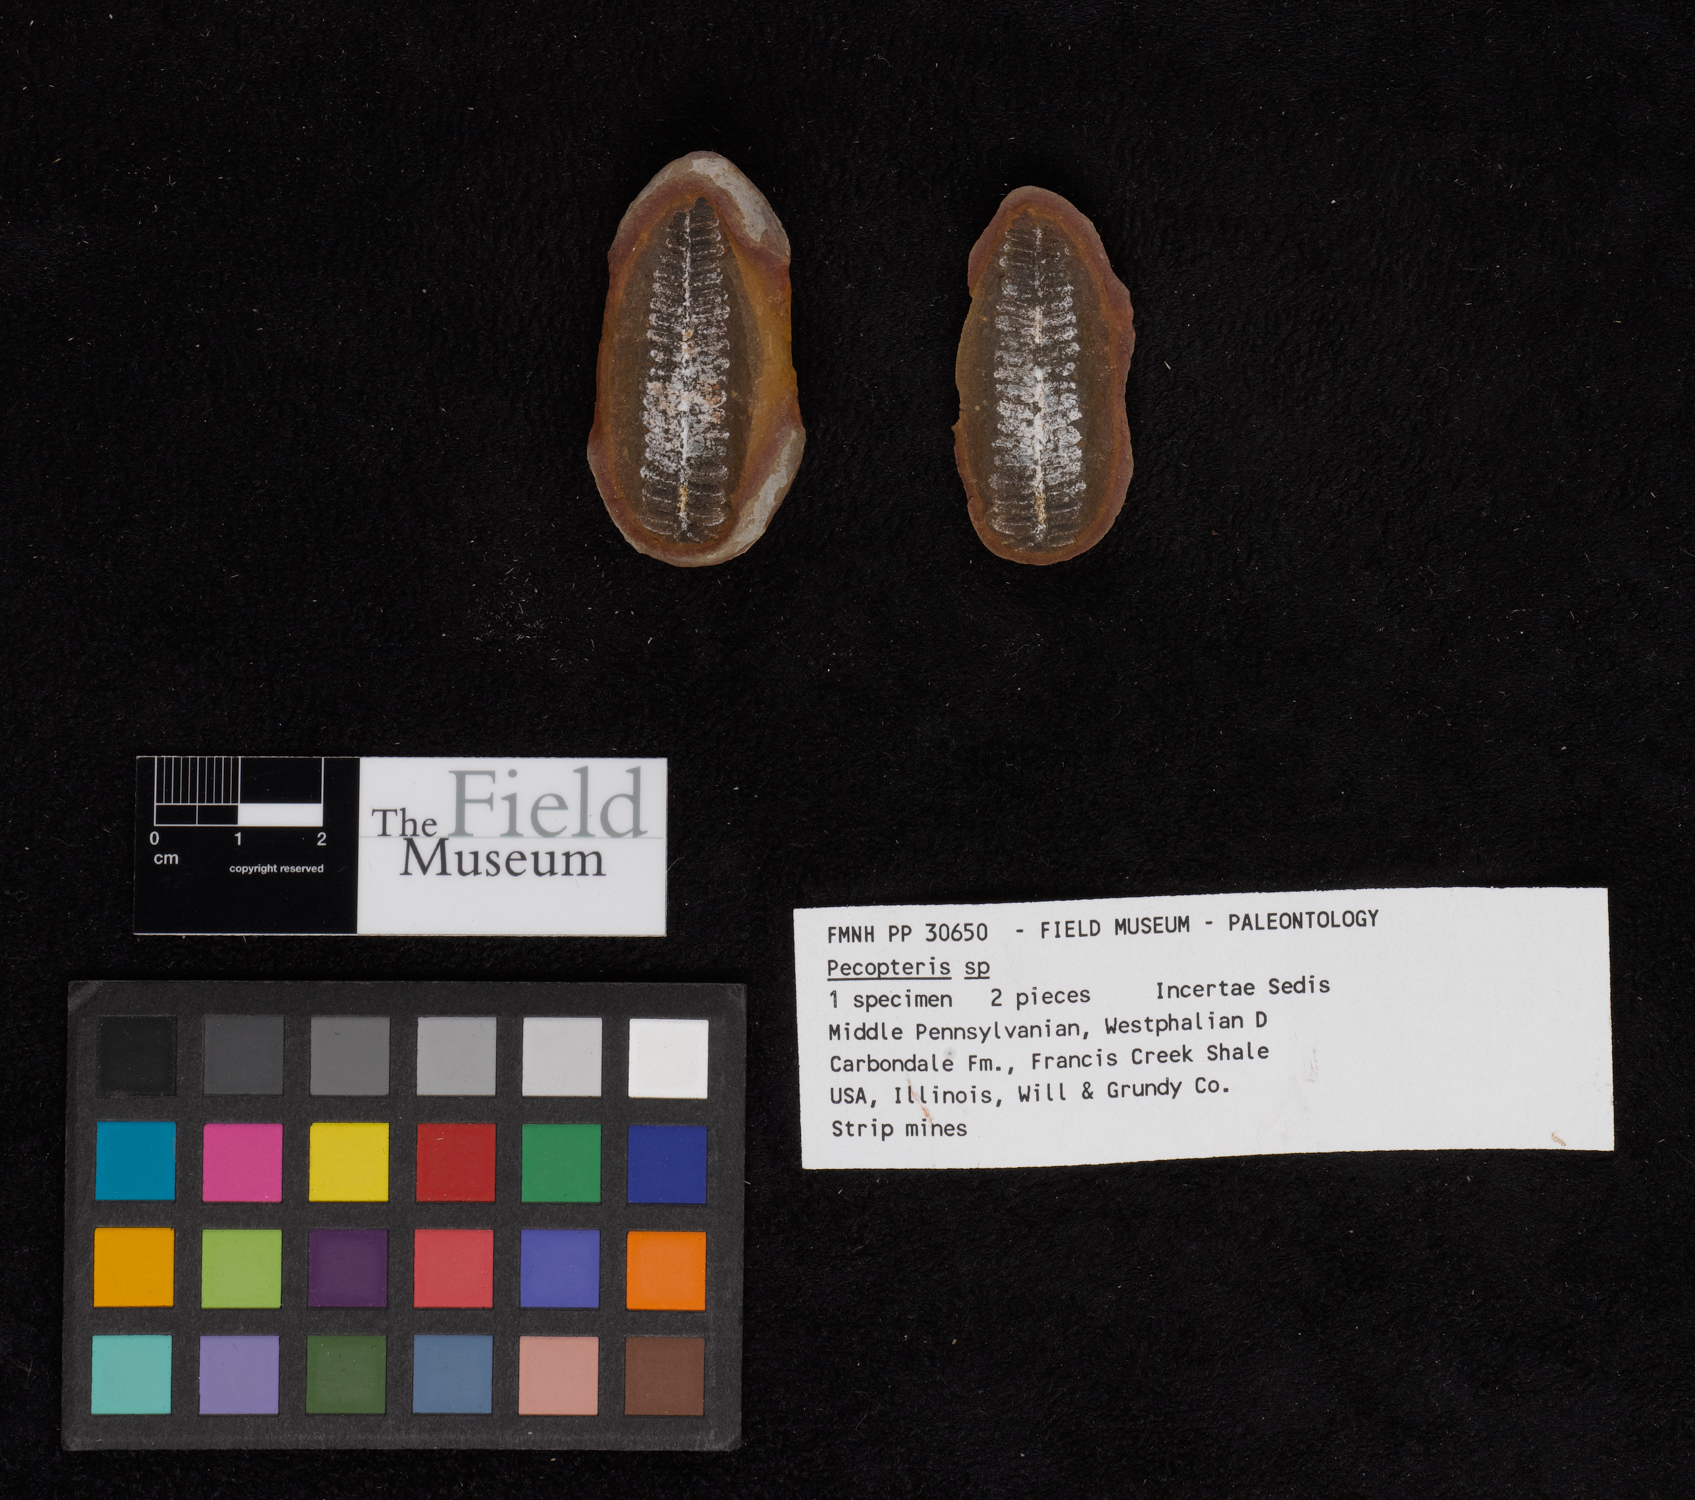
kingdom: Plantae
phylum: Tracheophyta
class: Polypodiopsida
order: Marattiales
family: Asterothecaceae
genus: Pecopteris
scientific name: Pecopteris
